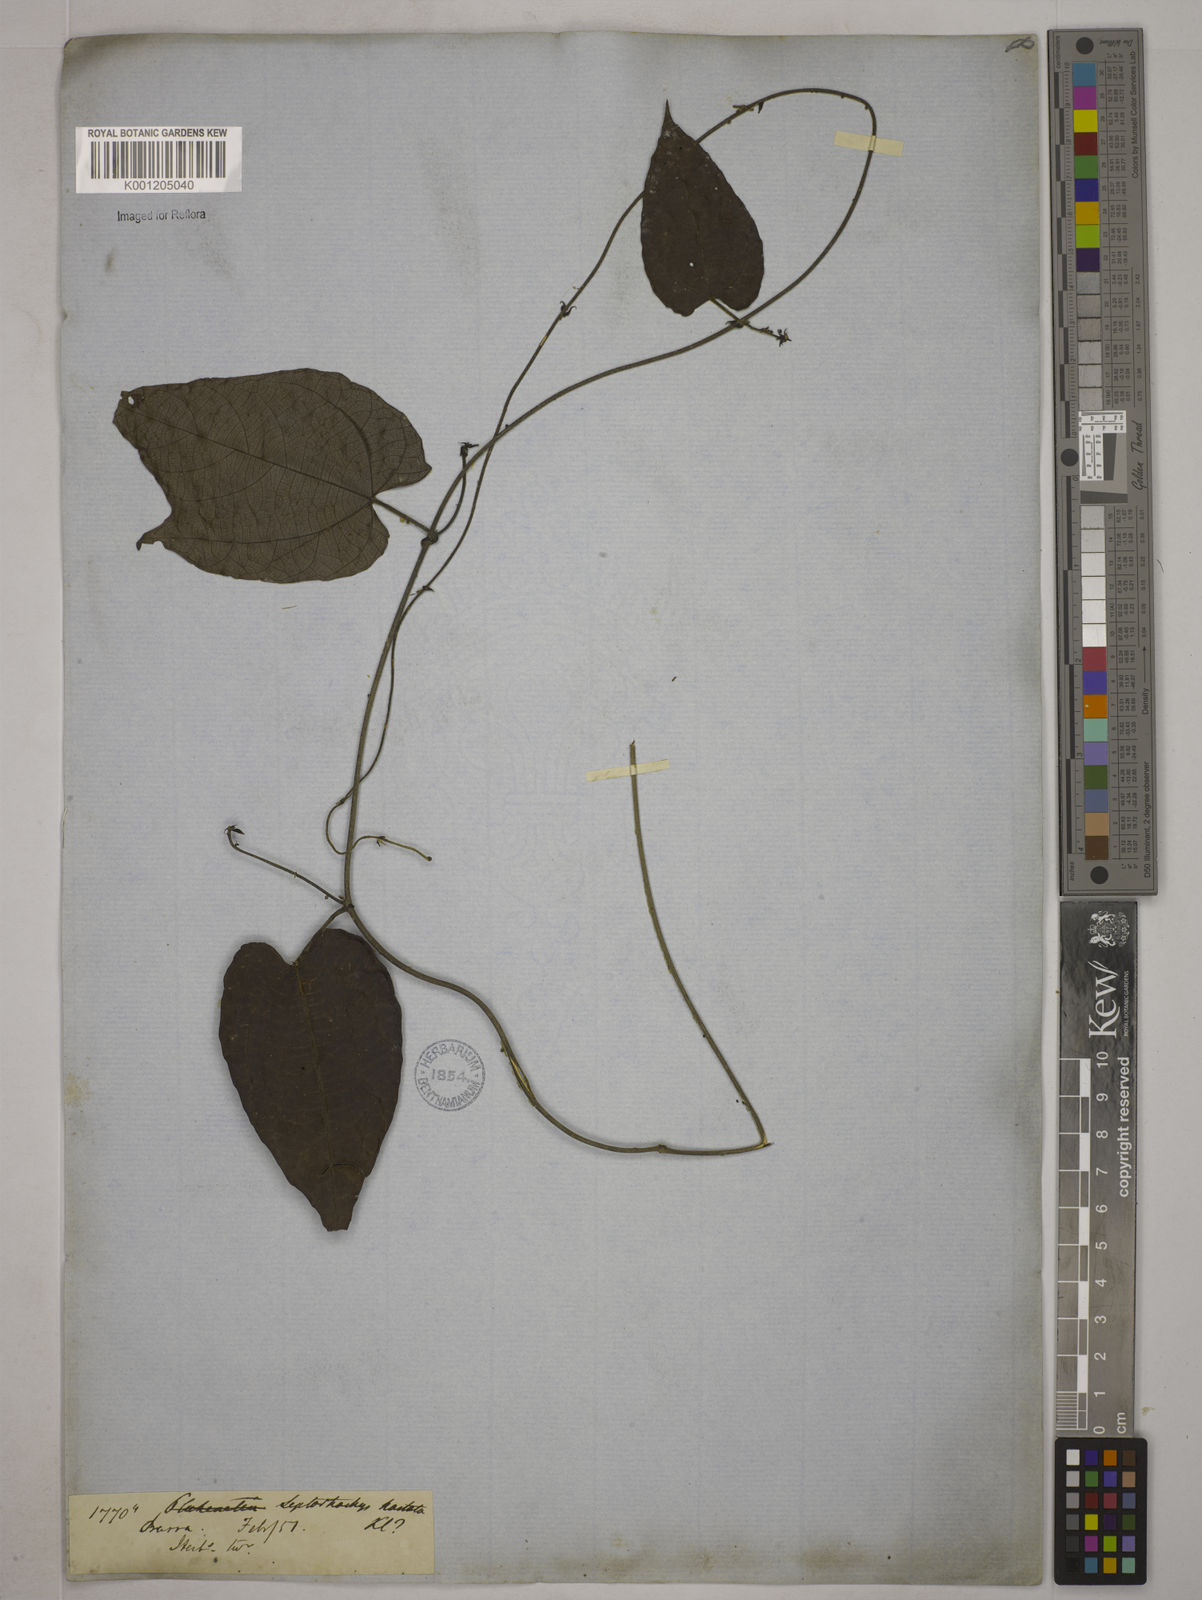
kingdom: Plantae
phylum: Tracheophyta
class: Magnoliopsida
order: Malpighiales
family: Euphorbiaceae
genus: Tragia
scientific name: Tragia volubilis
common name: Twining cow-itch
